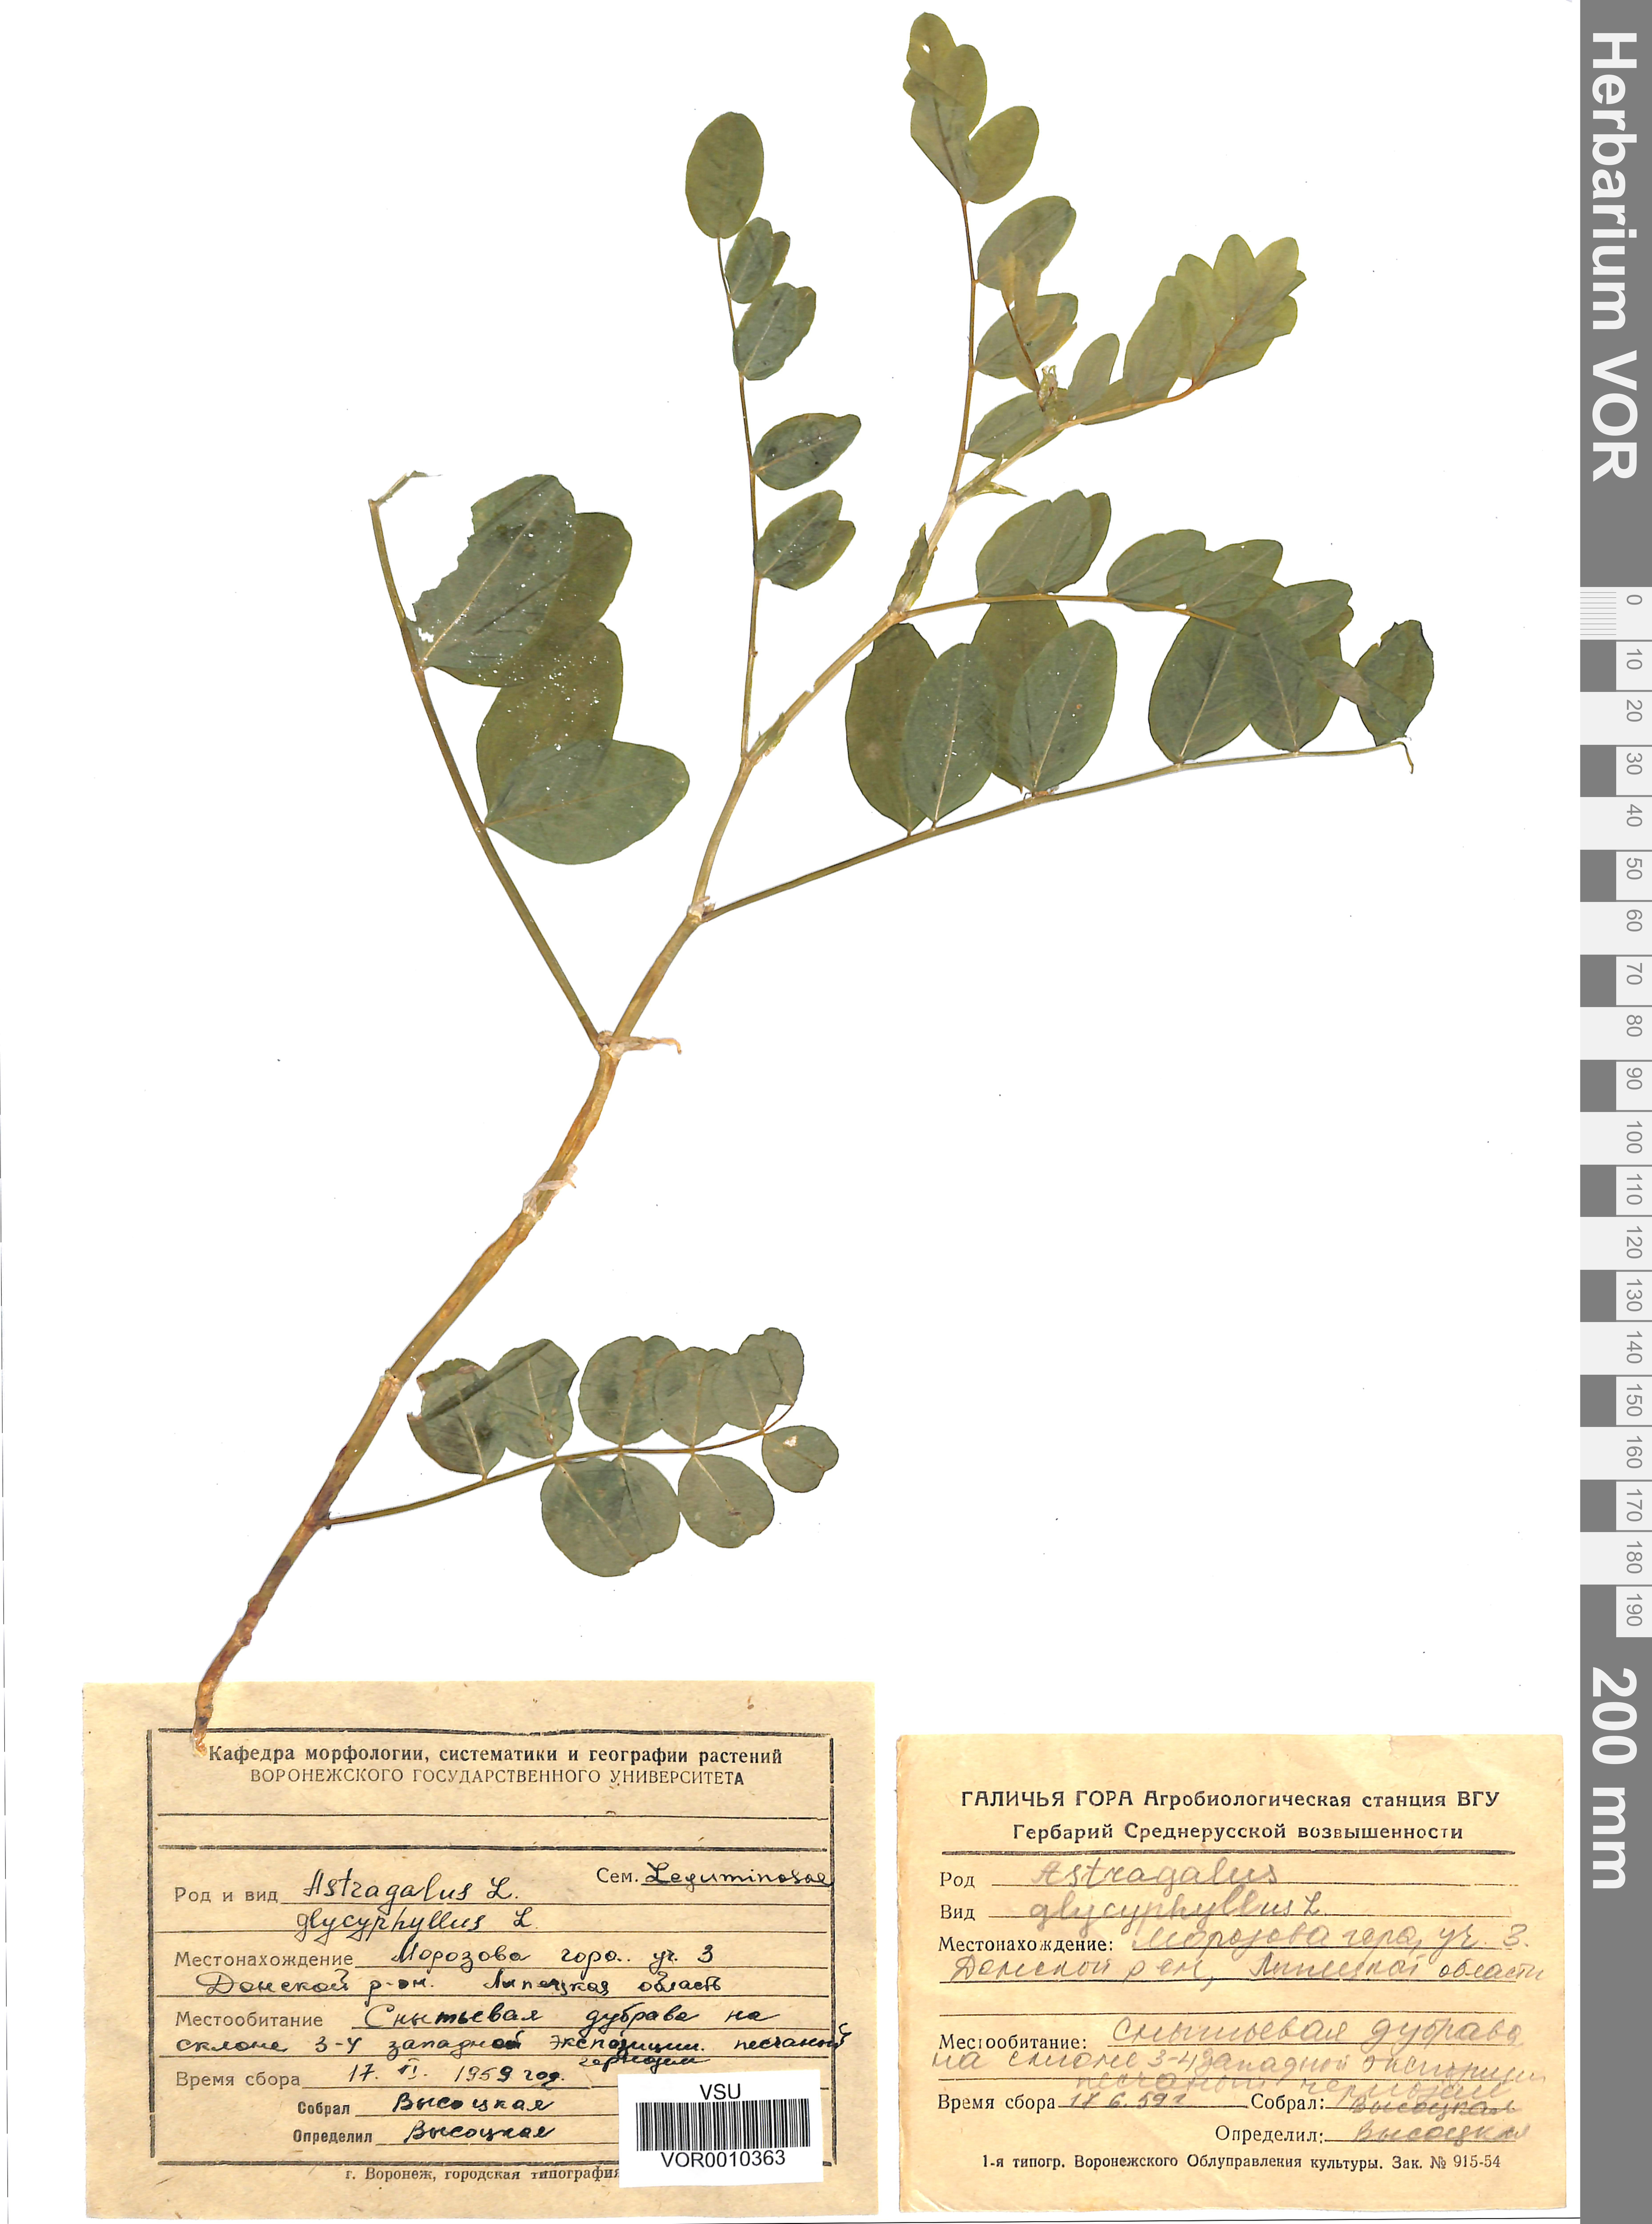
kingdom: Plantae
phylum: Tracheophyta
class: Magnoliopsida
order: Fabales
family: Fabaceae
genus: Astragalus
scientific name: Astragalus glycyphyllos
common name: Wild liquorice
